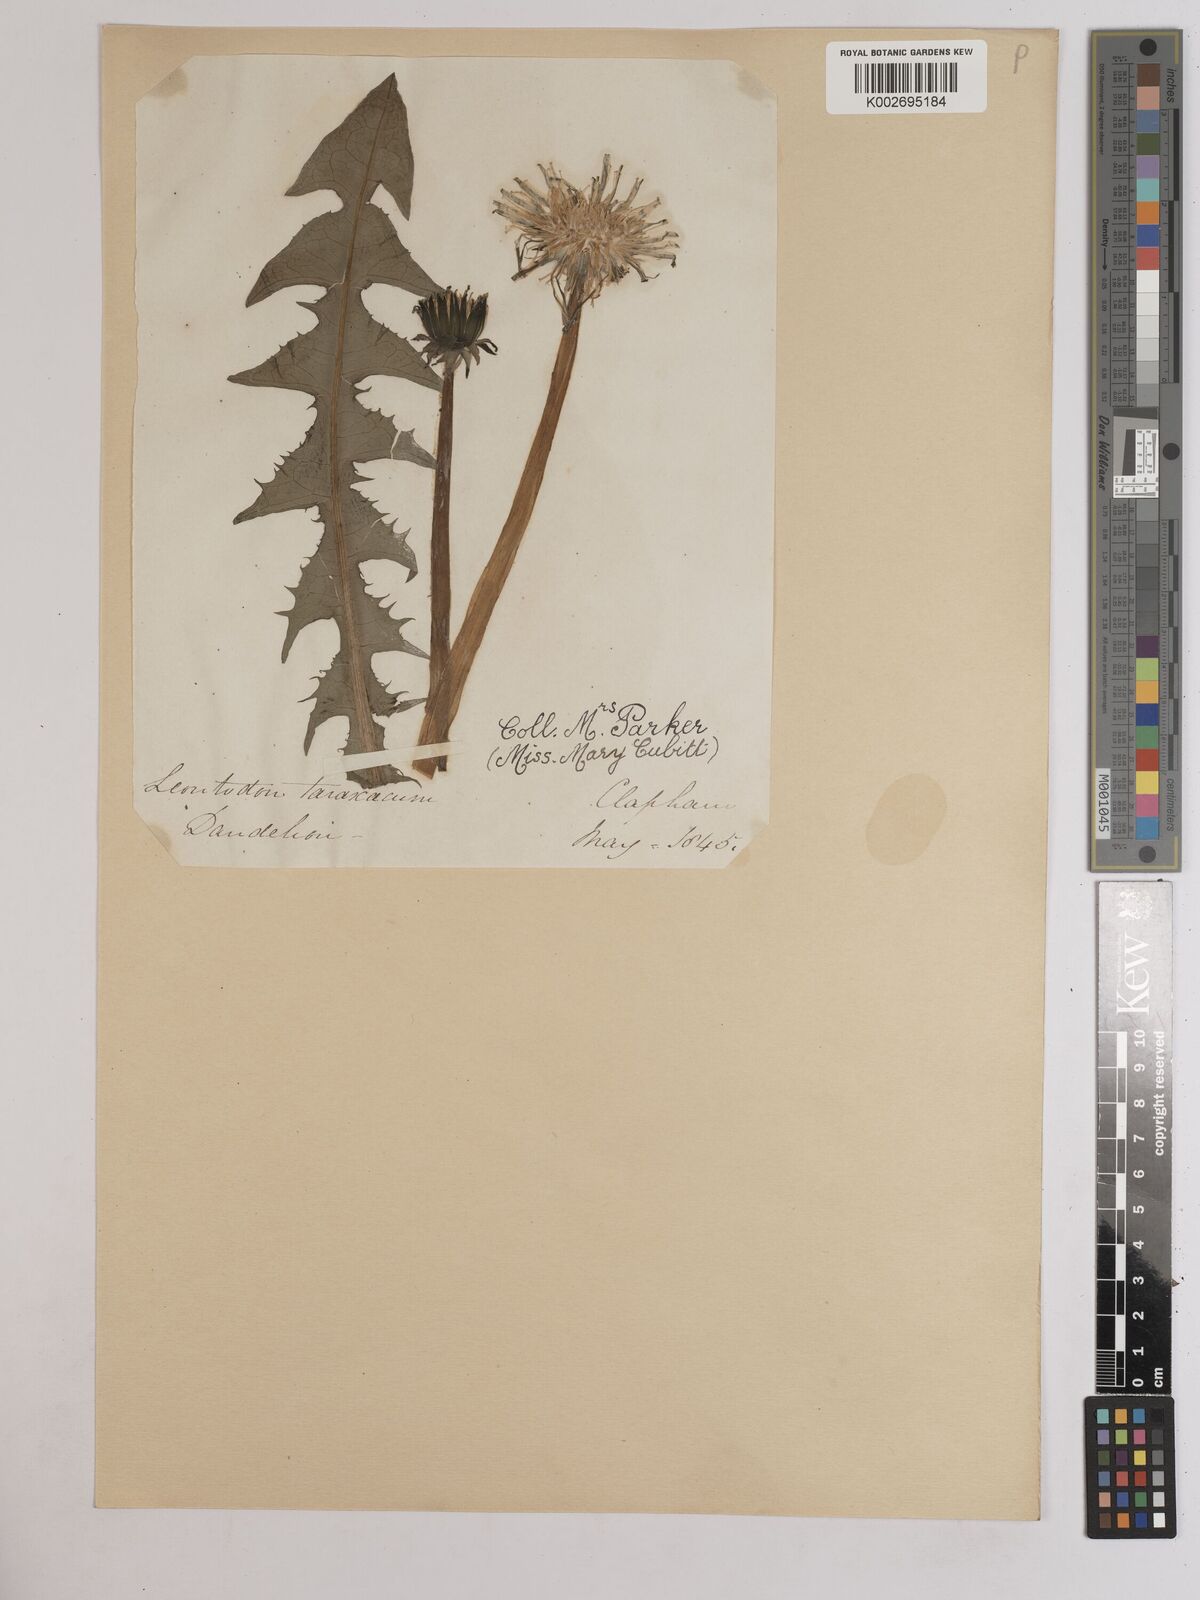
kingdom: Plantae
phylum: Tracheophyta
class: Magnoliopsida
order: Asterales
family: Asteraceae
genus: Taraxacum
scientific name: Taraxacum officinale
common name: Common dandelion
